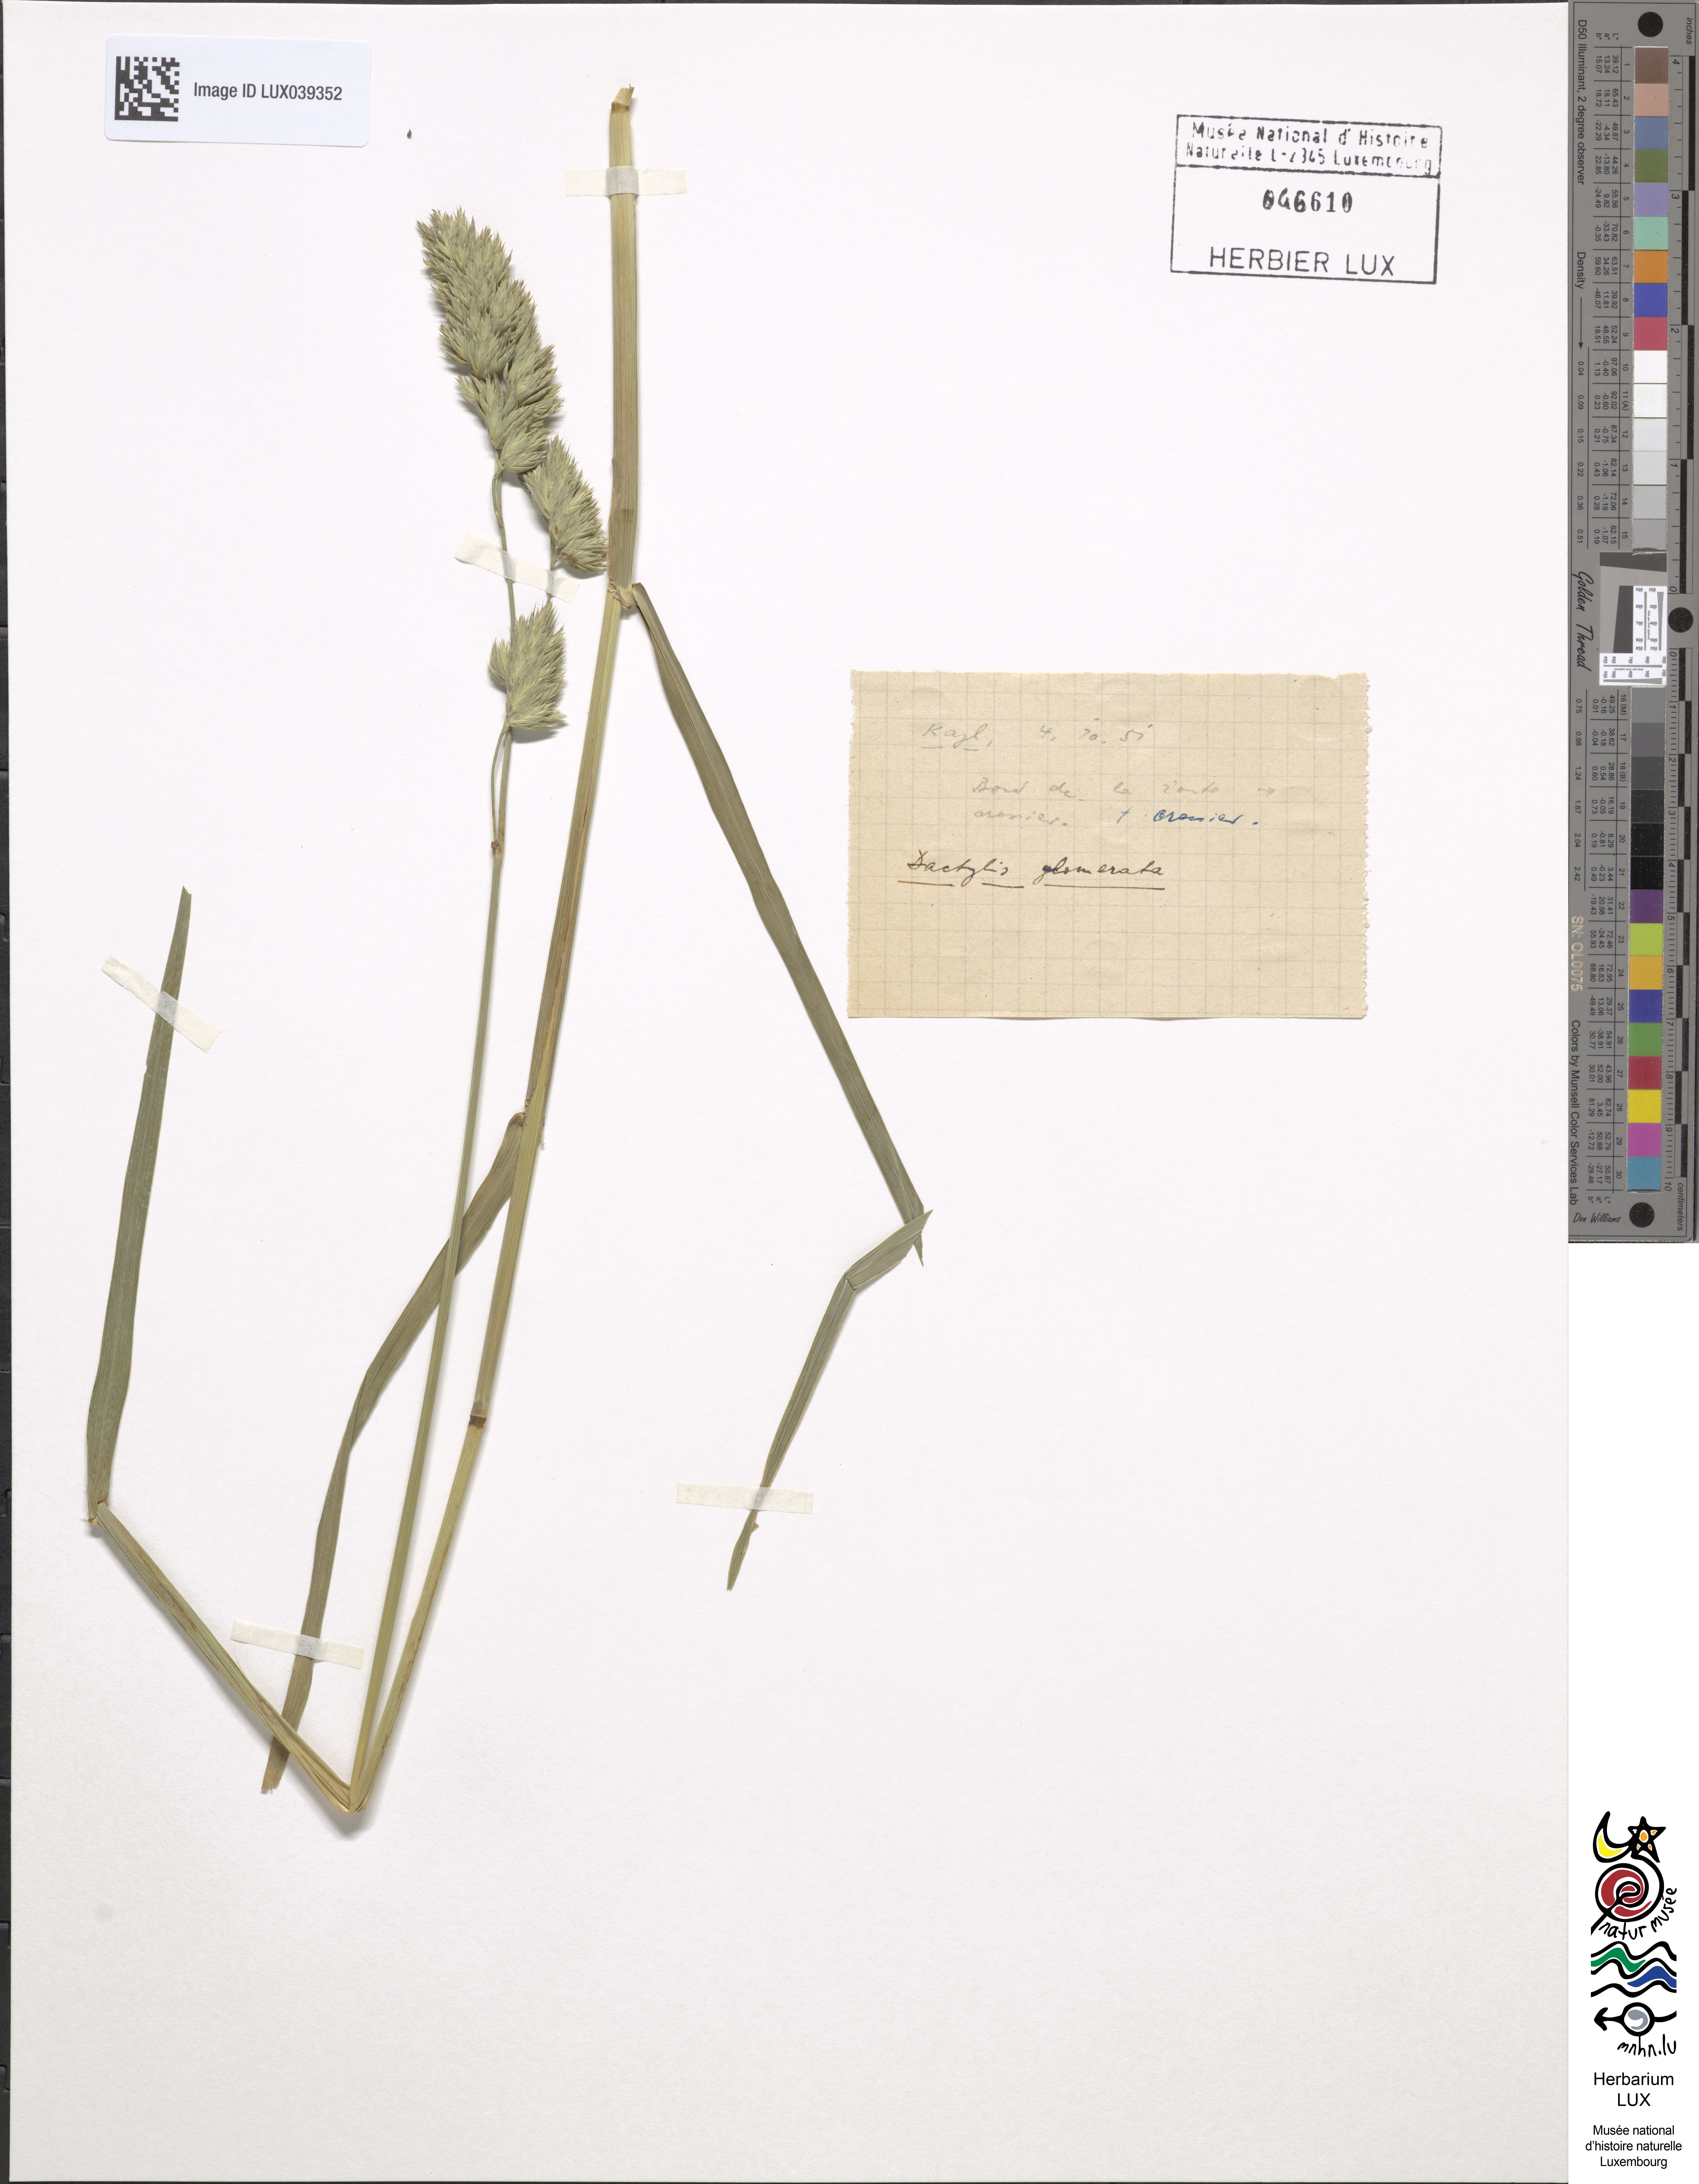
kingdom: Plantae
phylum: Tracheophyta
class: Liliopsida
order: Poales
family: Poaceae
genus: Dactylis
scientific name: Dactylis glomerata
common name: Orchardgrass
